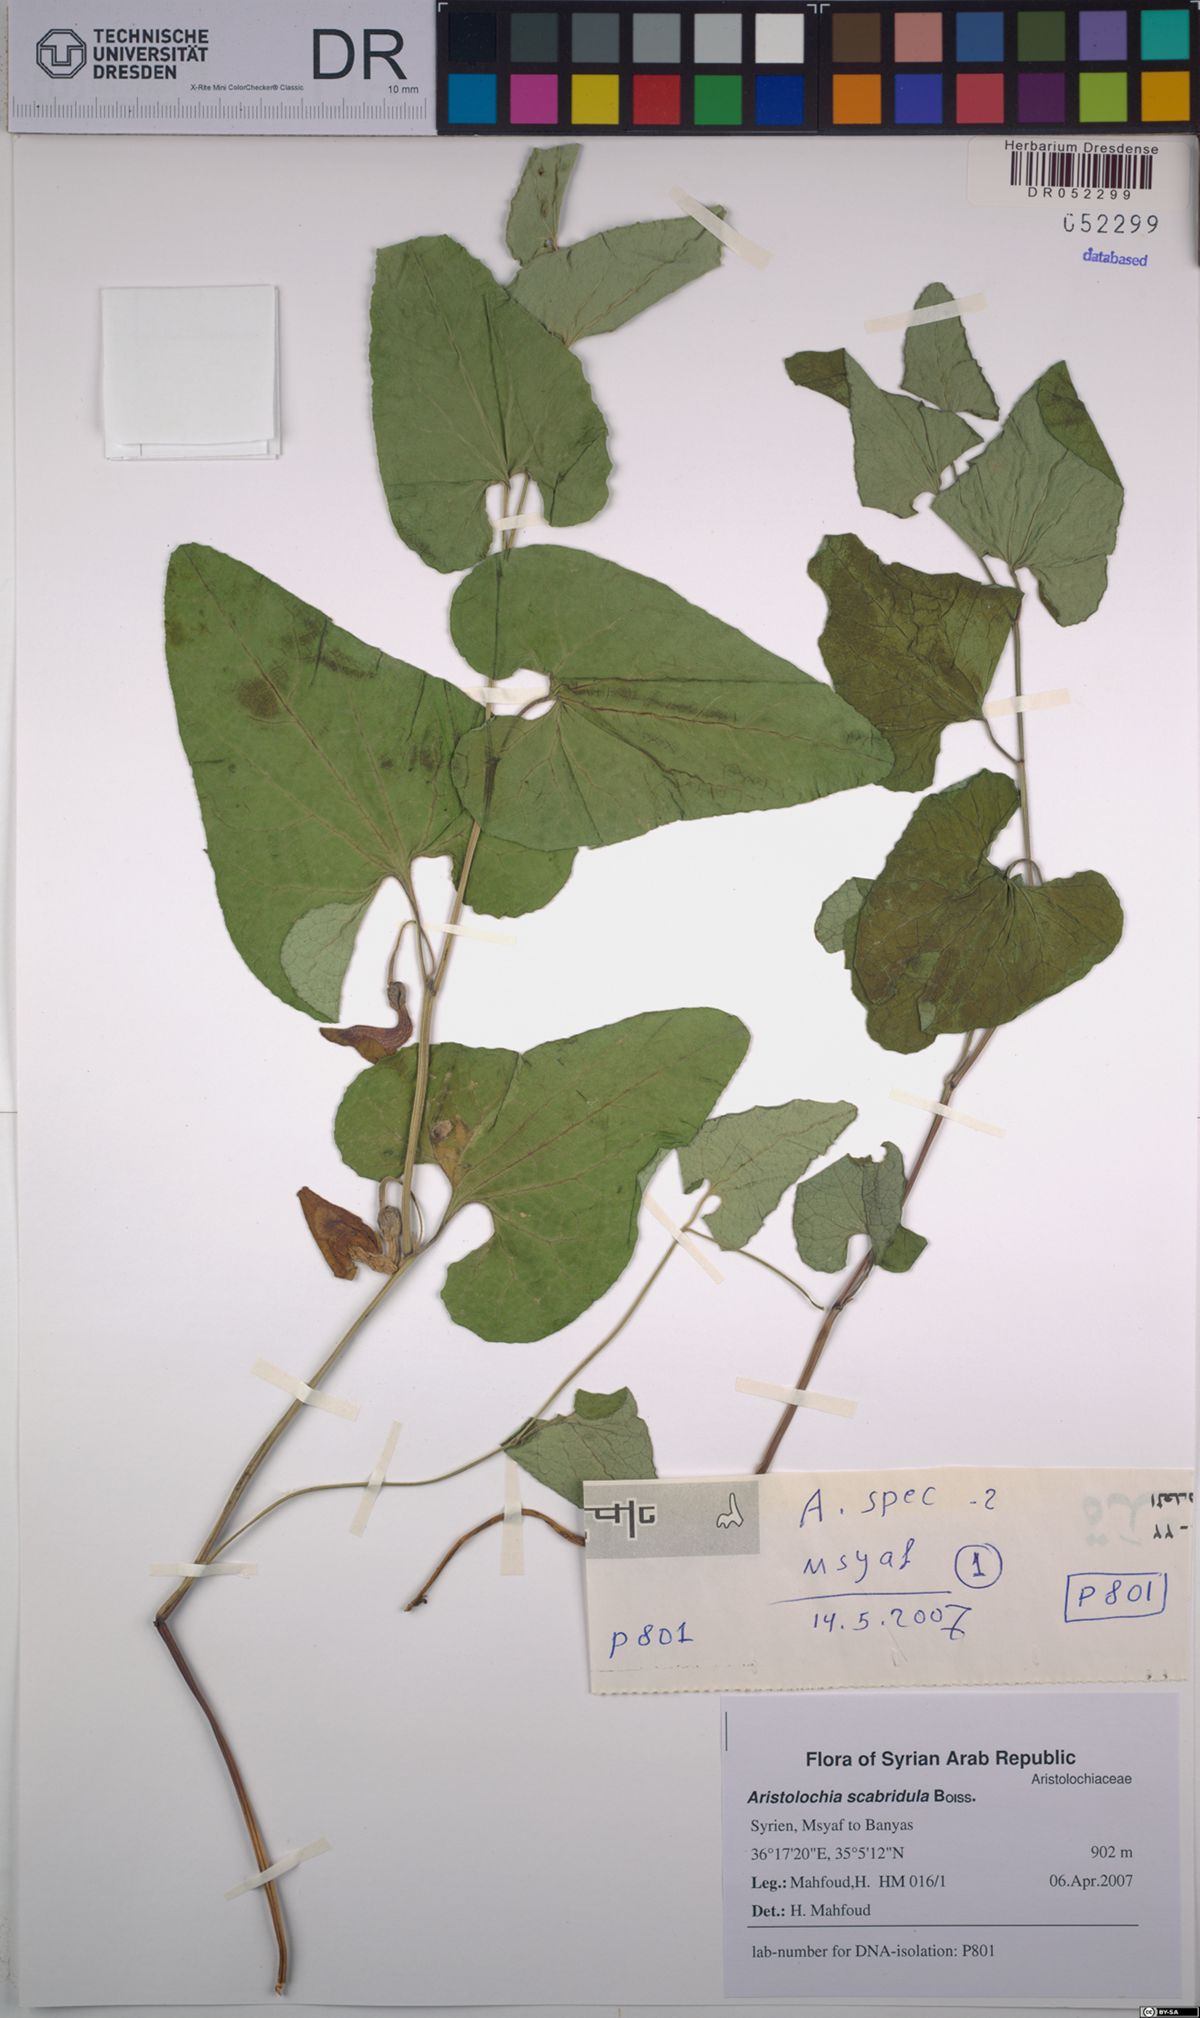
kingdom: Plantae
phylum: Tracheophyta
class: Magnoliopsida
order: Piperales
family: Aristolochiaceae
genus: Aristolochia
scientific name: Aristolochia paecilantha
